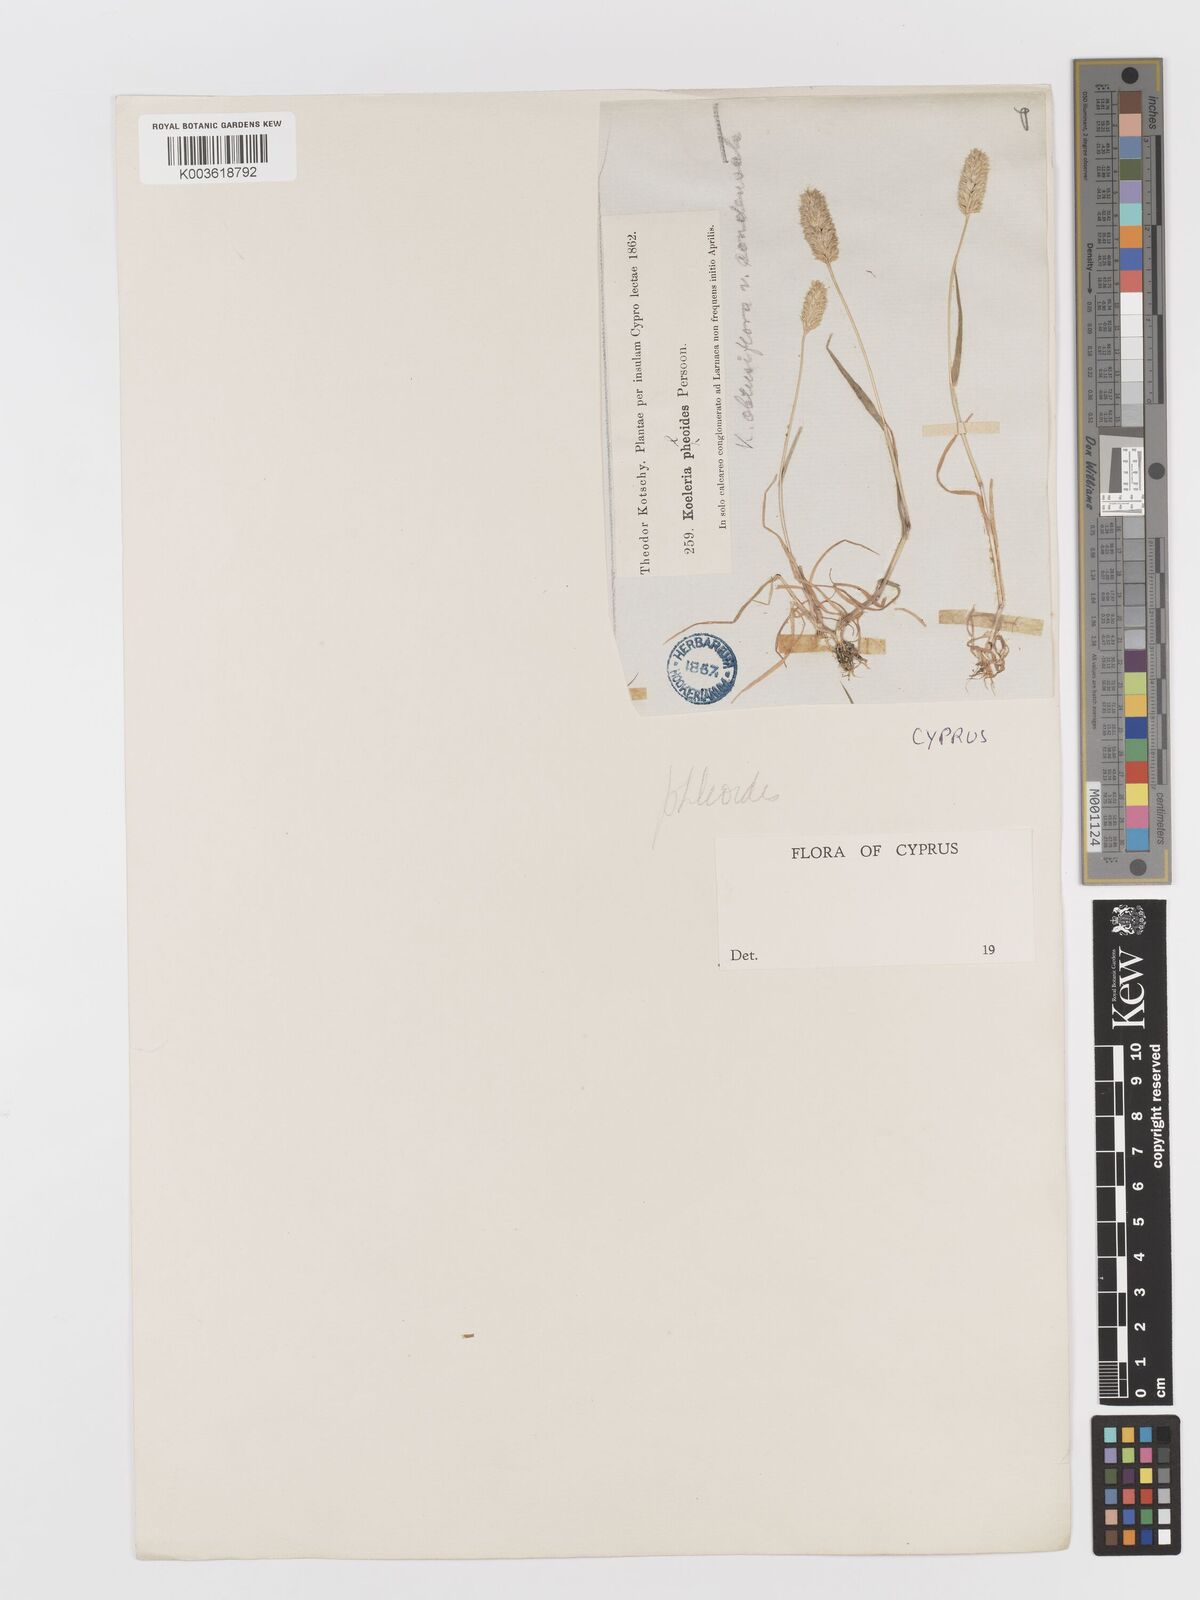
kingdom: Plantae
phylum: Tracheophyta
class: Liliopsida
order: Poales
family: Poaceae
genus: Rostraria
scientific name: Rostraria cristata
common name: Mediterranean hair-grass
